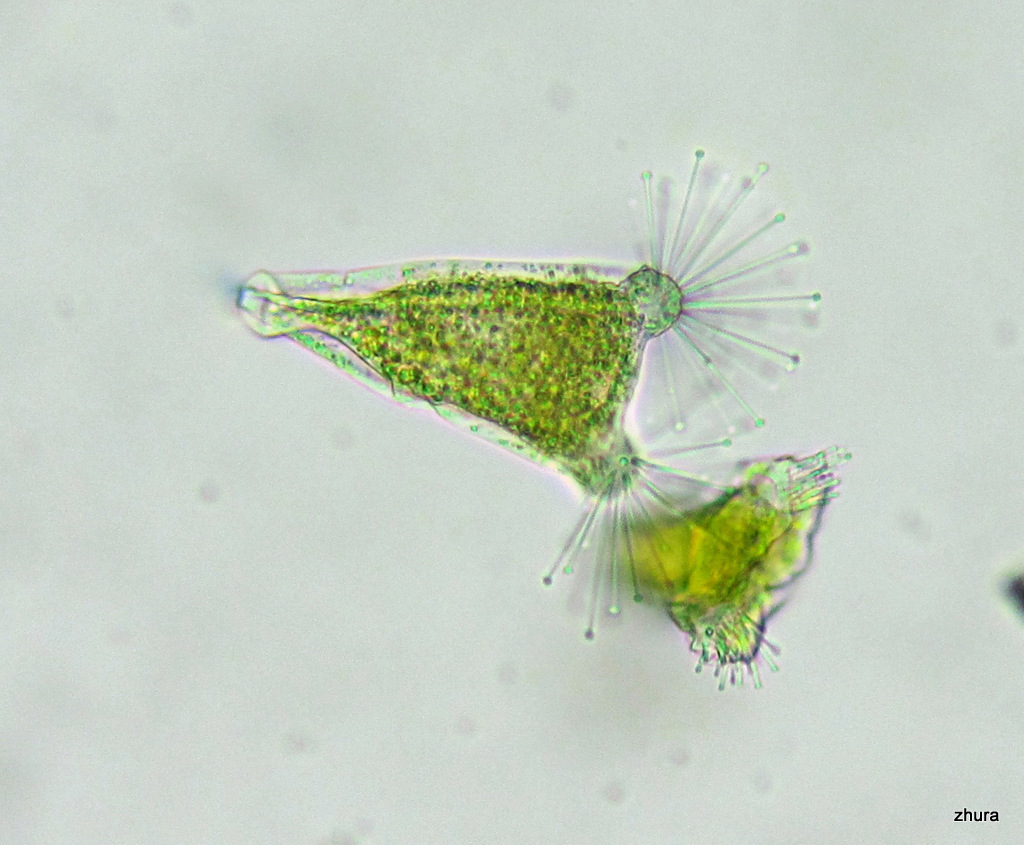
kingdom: Chromista
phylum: Ciliophora
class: Kinetofragminophora
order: Suctorida
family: Acinetidae
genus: Acineta
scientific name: Acineta tuberosa
